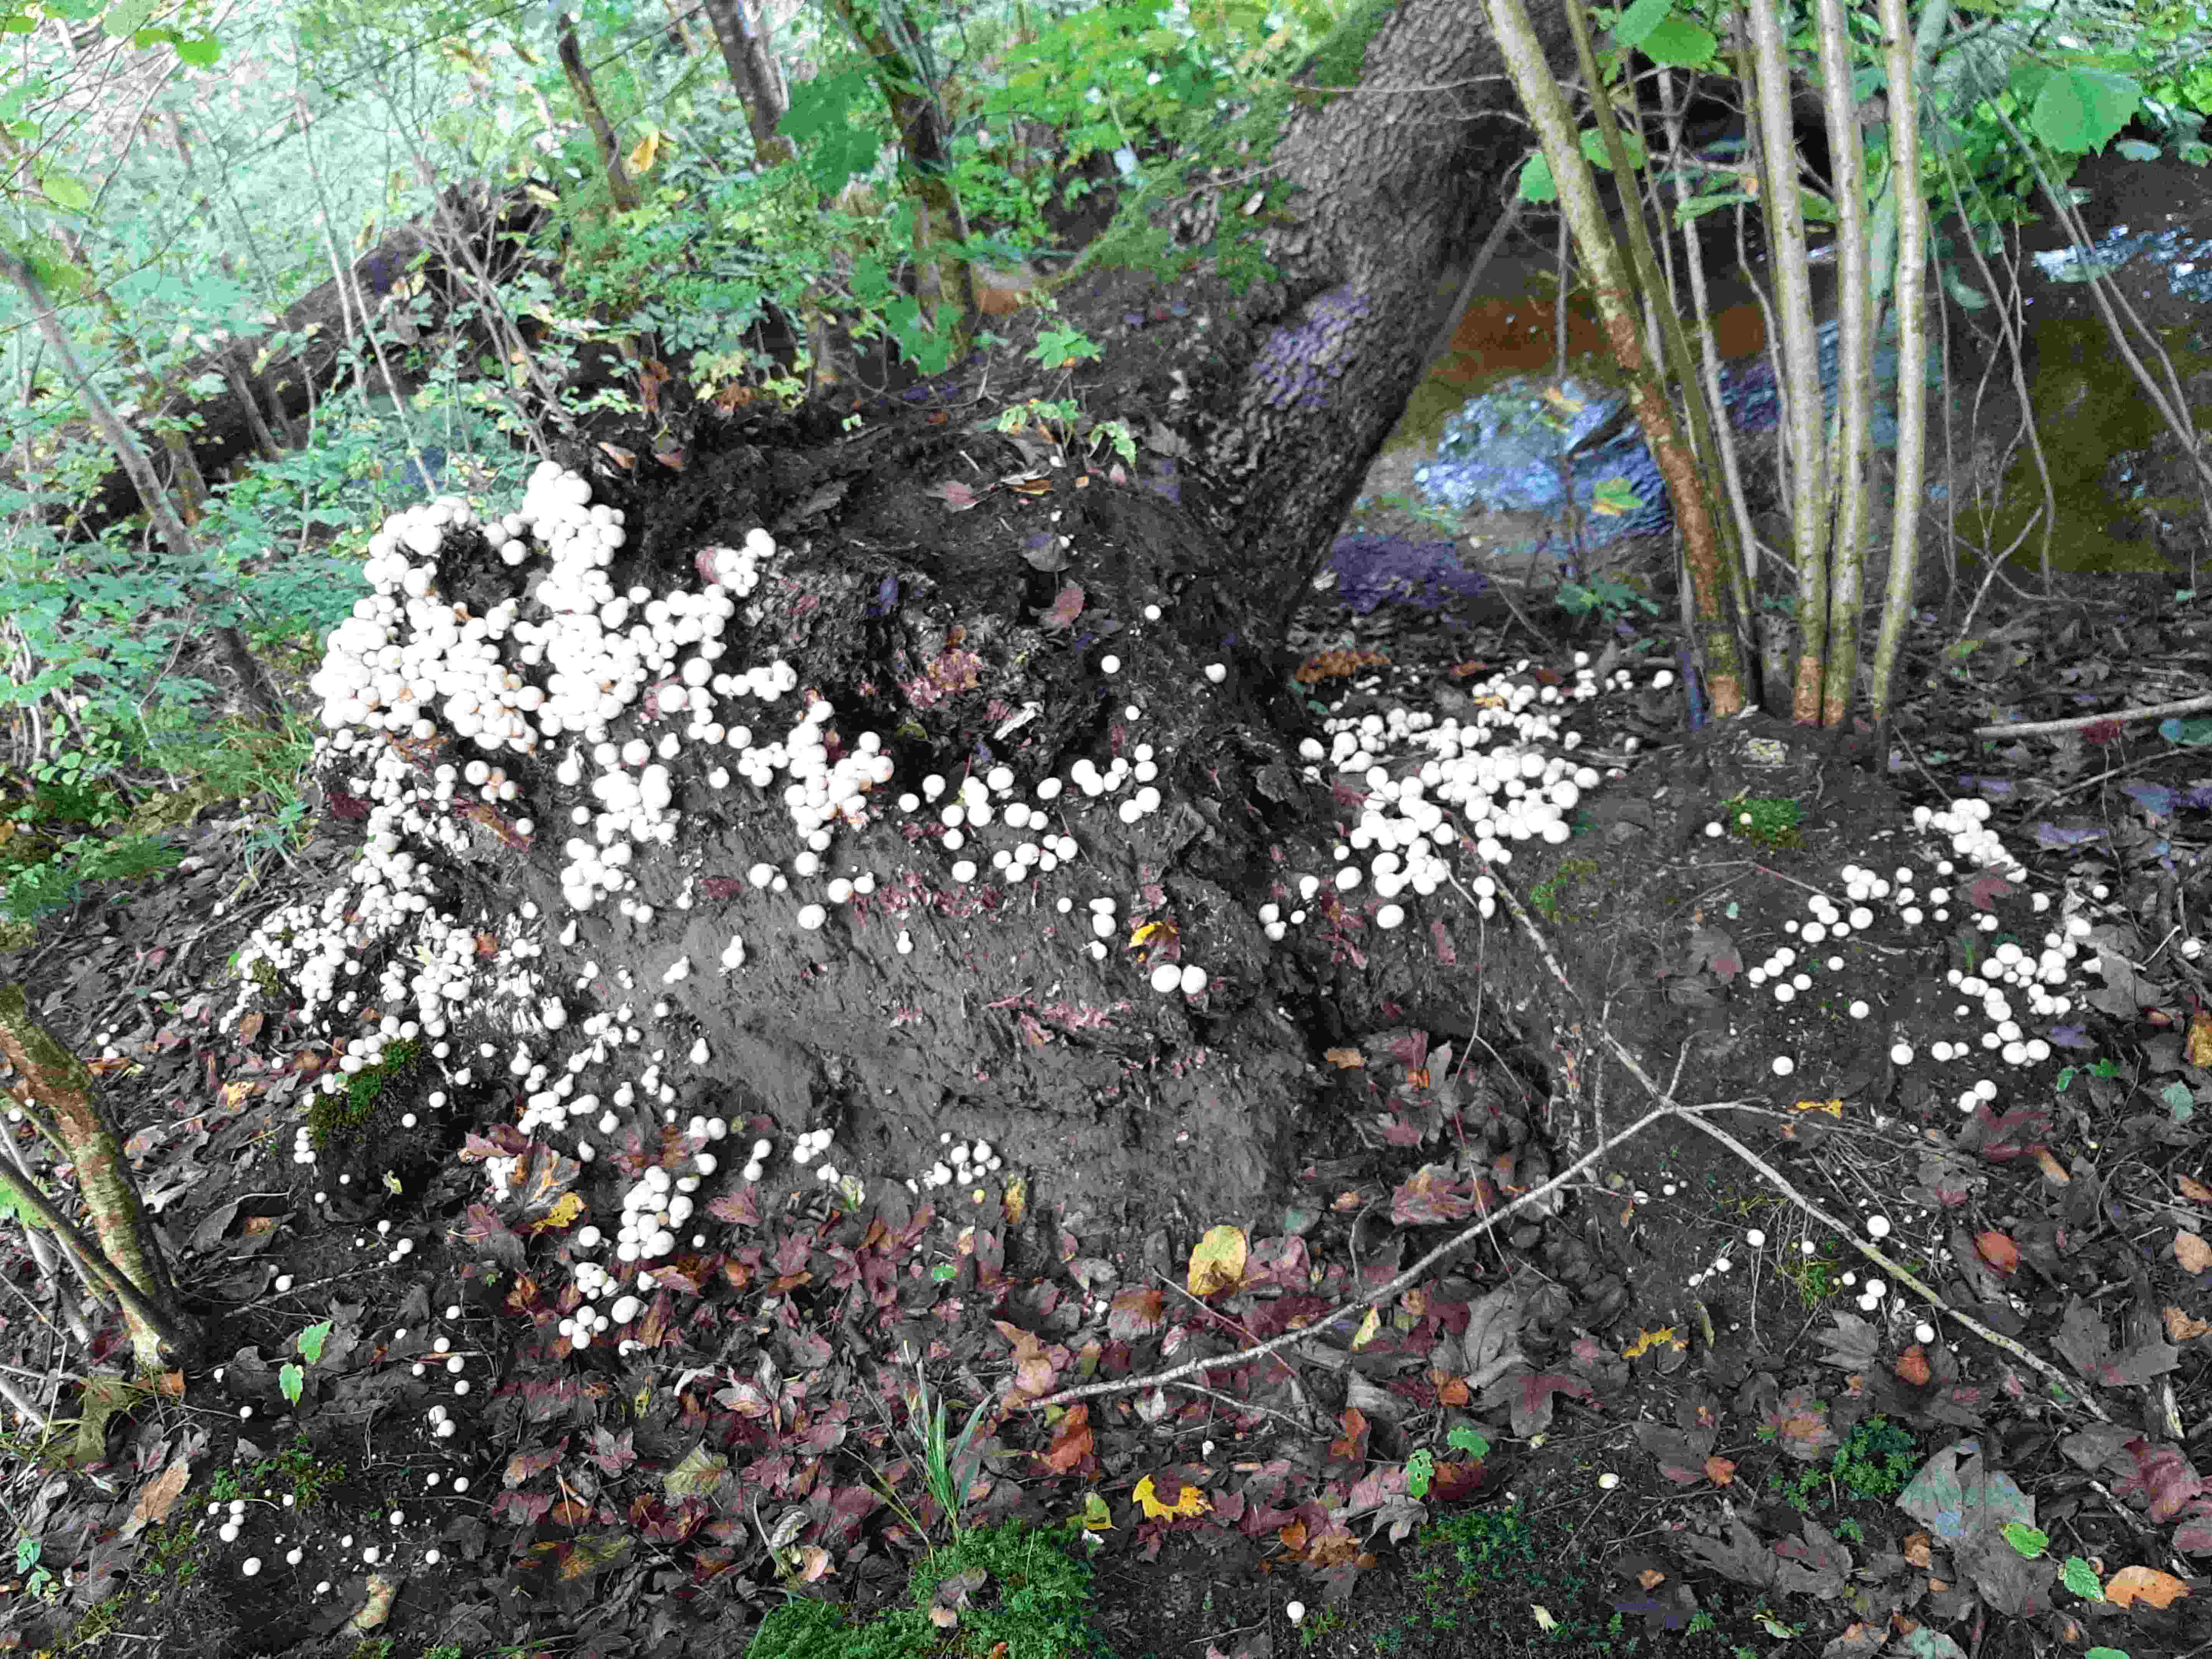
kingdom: Fungi
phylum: Basidiomycota
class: Agaricomycetes
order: Agaricales
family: Lycoperdaceae
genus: Apioperdon
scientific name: Apioperdon pyriforme
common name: pære-støvbold
